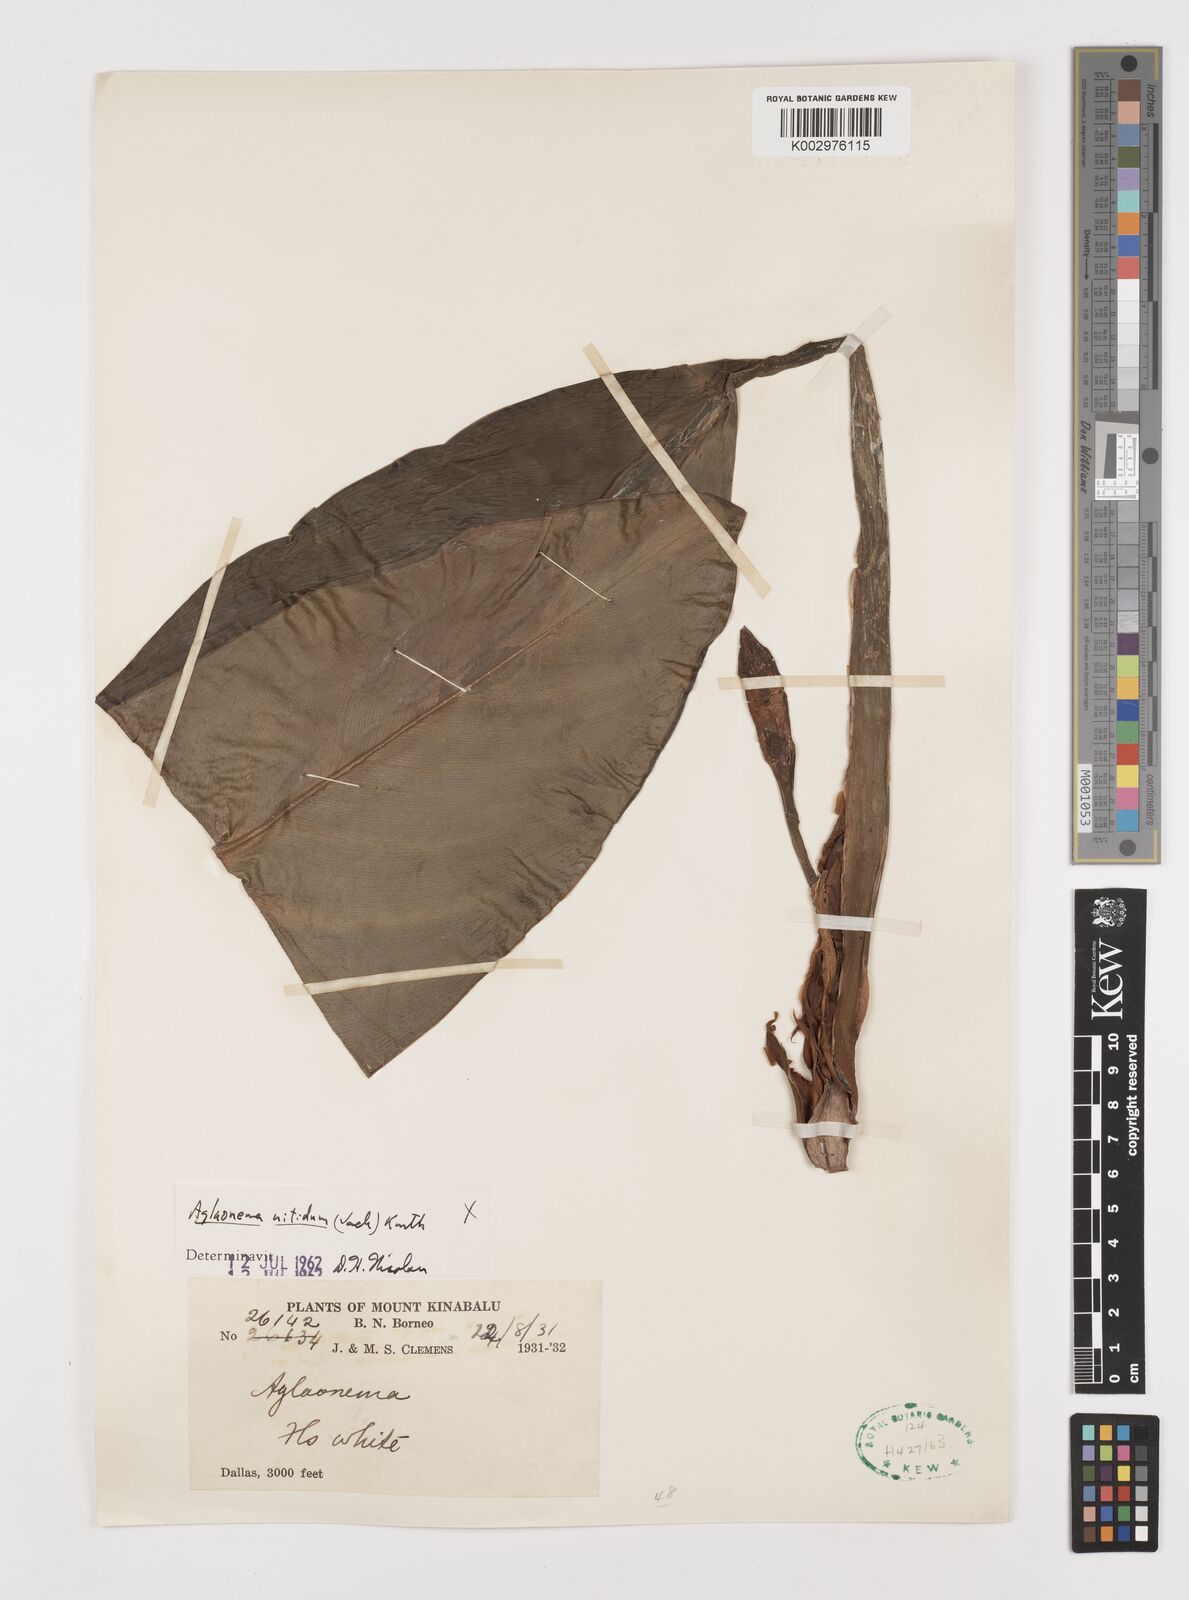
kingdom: Plantae
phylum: Tracheophyta
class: Liliopsida
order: Alismatales
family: Araceae
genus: Aglaonema
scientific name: Aglaonema nitidum
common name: Aglaonema aroid
